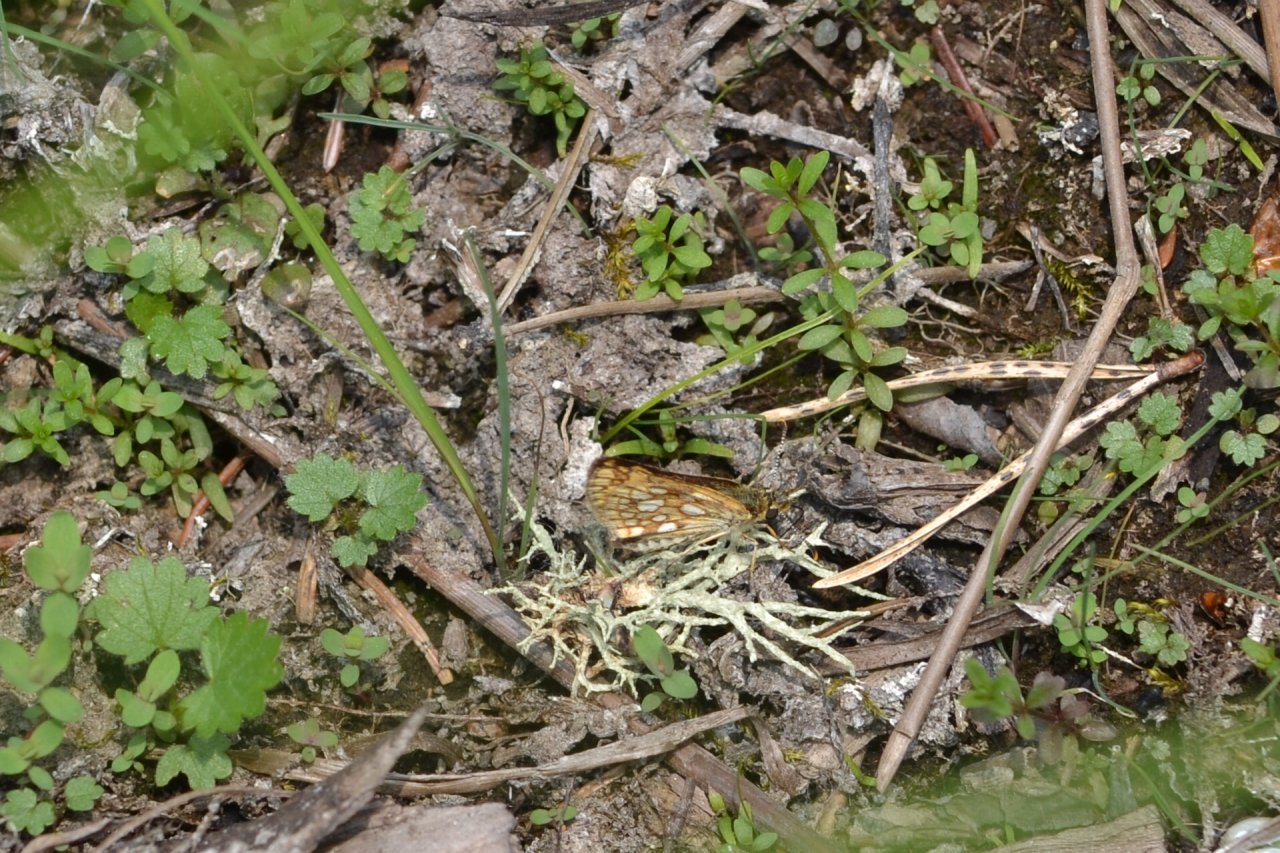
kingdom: Animalia
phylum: Arthropoda
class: Insecta
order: Lepidoptera
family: Hesperiidae
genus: Carterocephalus
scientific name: Carterocephalus palaemon
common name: Chequered Skipper
